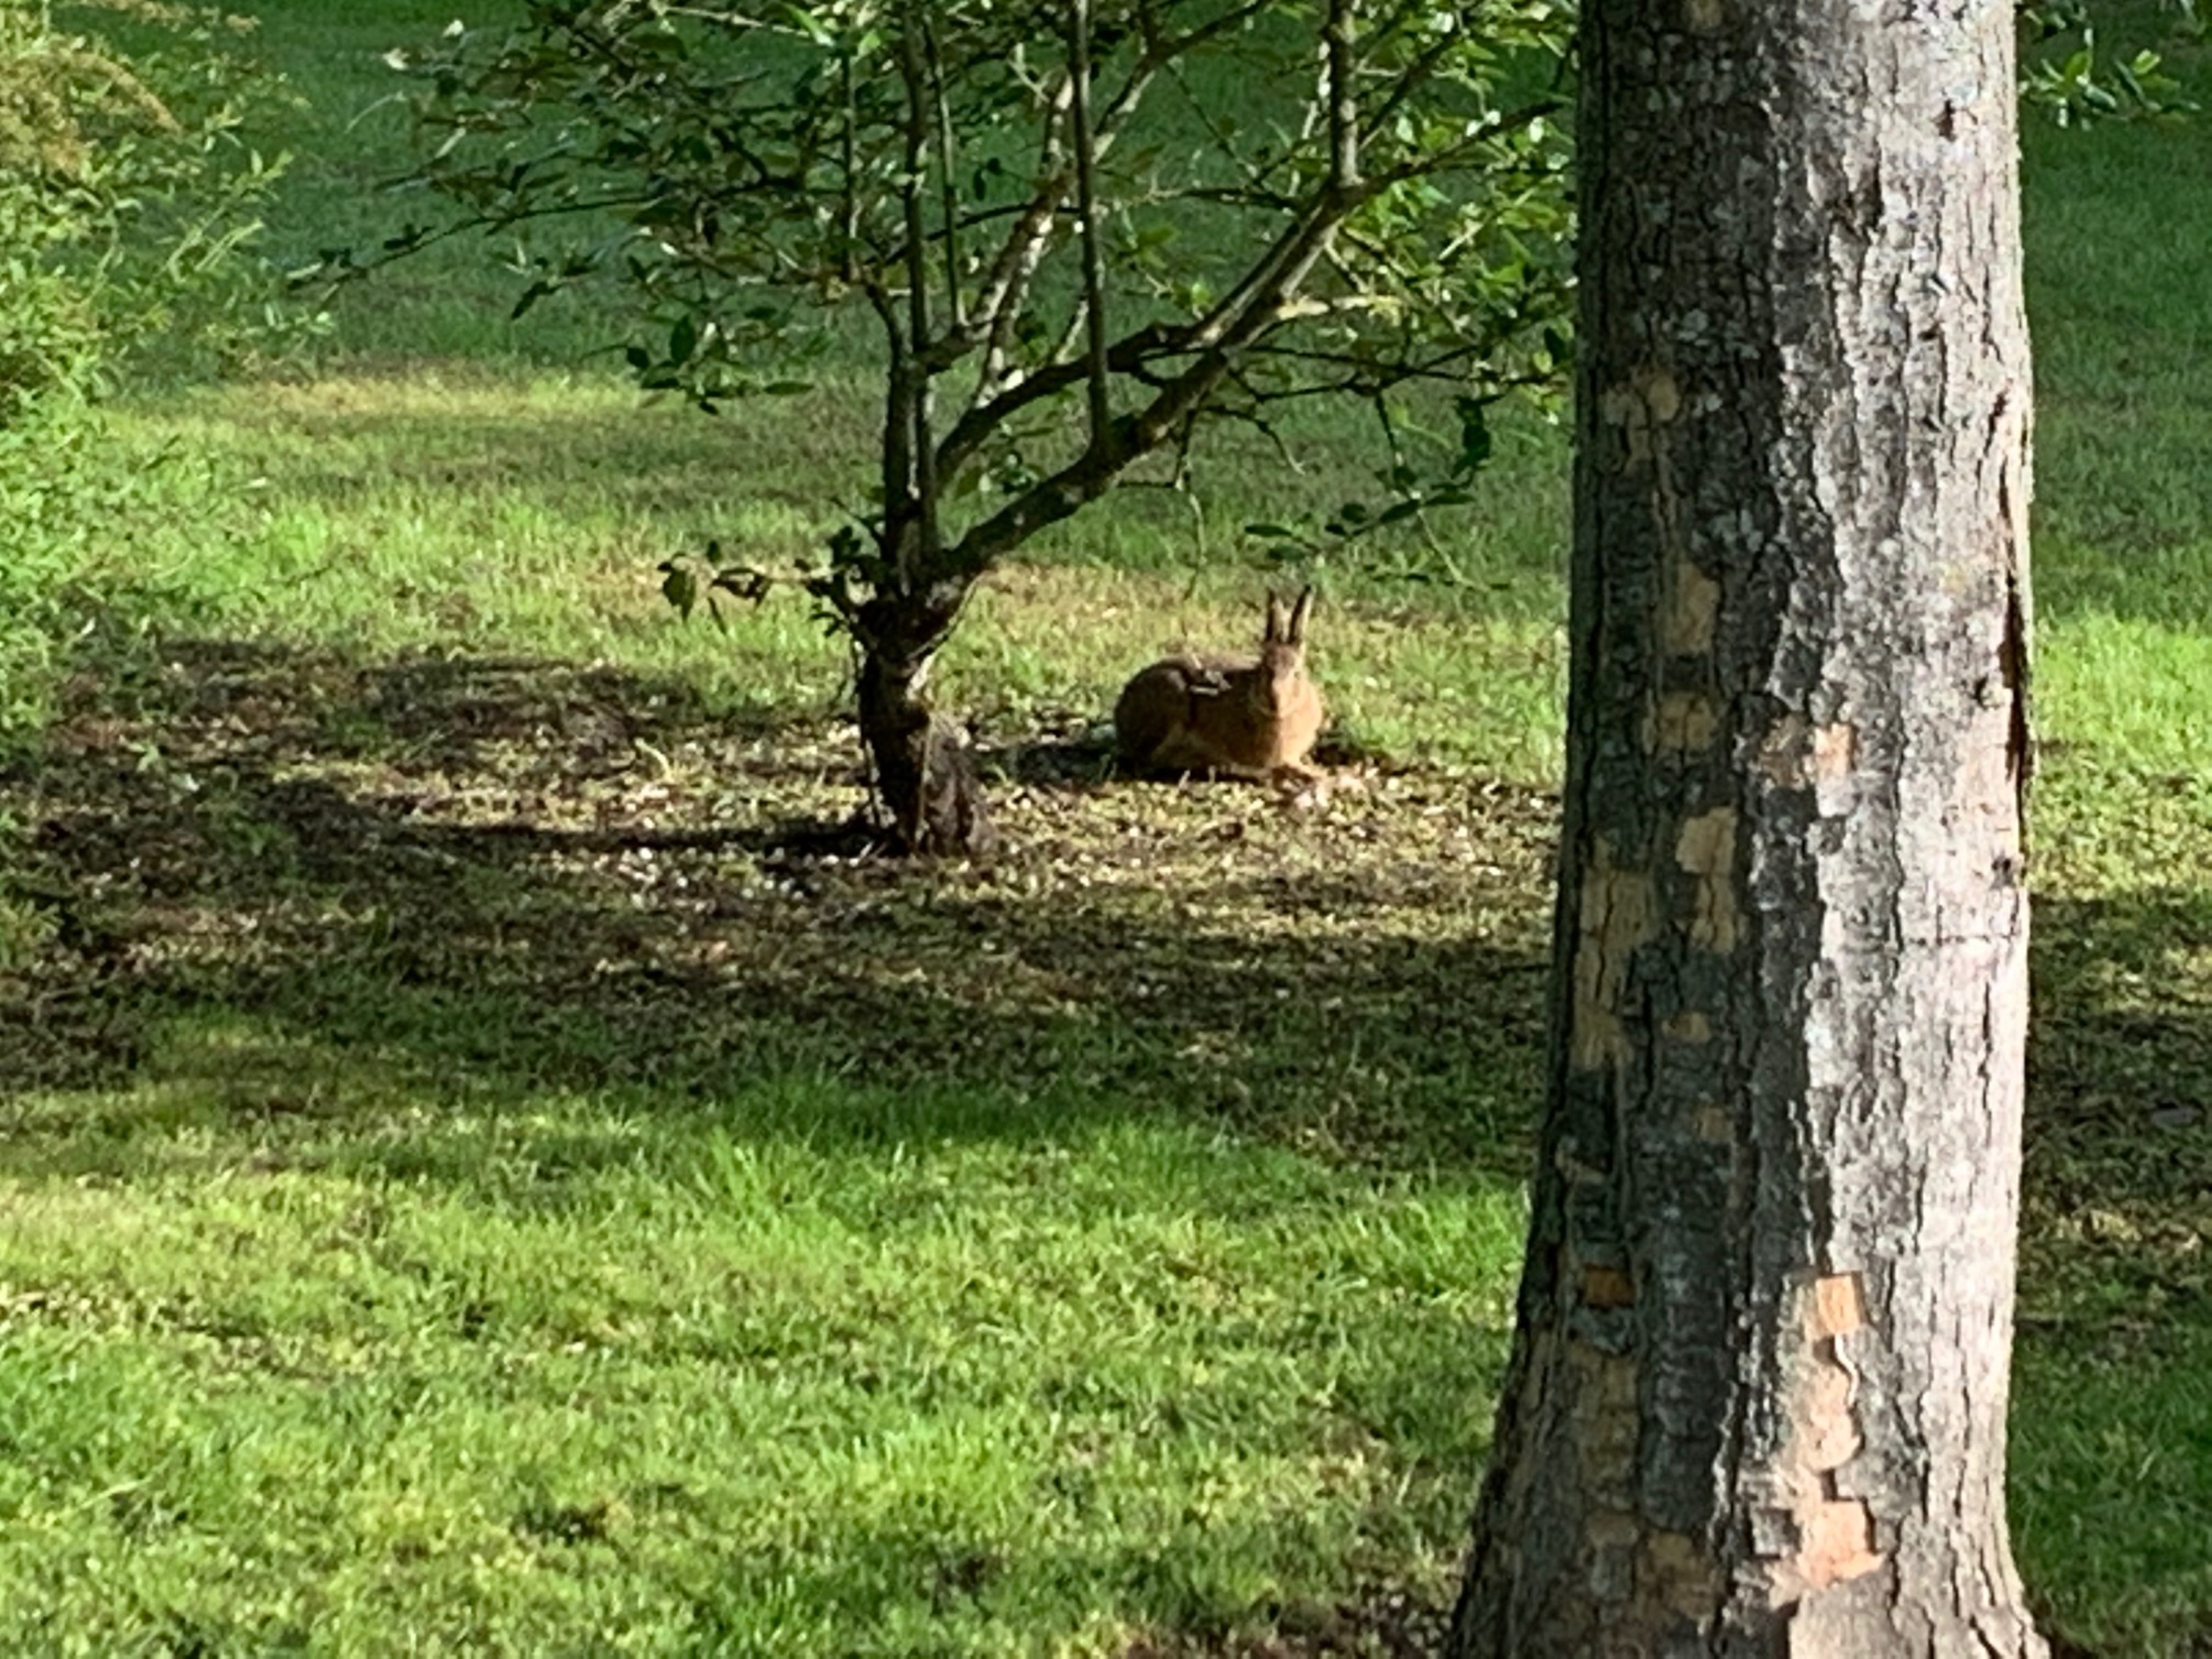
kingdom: Animalia
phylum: Chordata
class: Mammalia
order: Lagomorpha
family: Leporidae
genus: Lepus
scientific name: Lepus europaeus
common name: Hare
